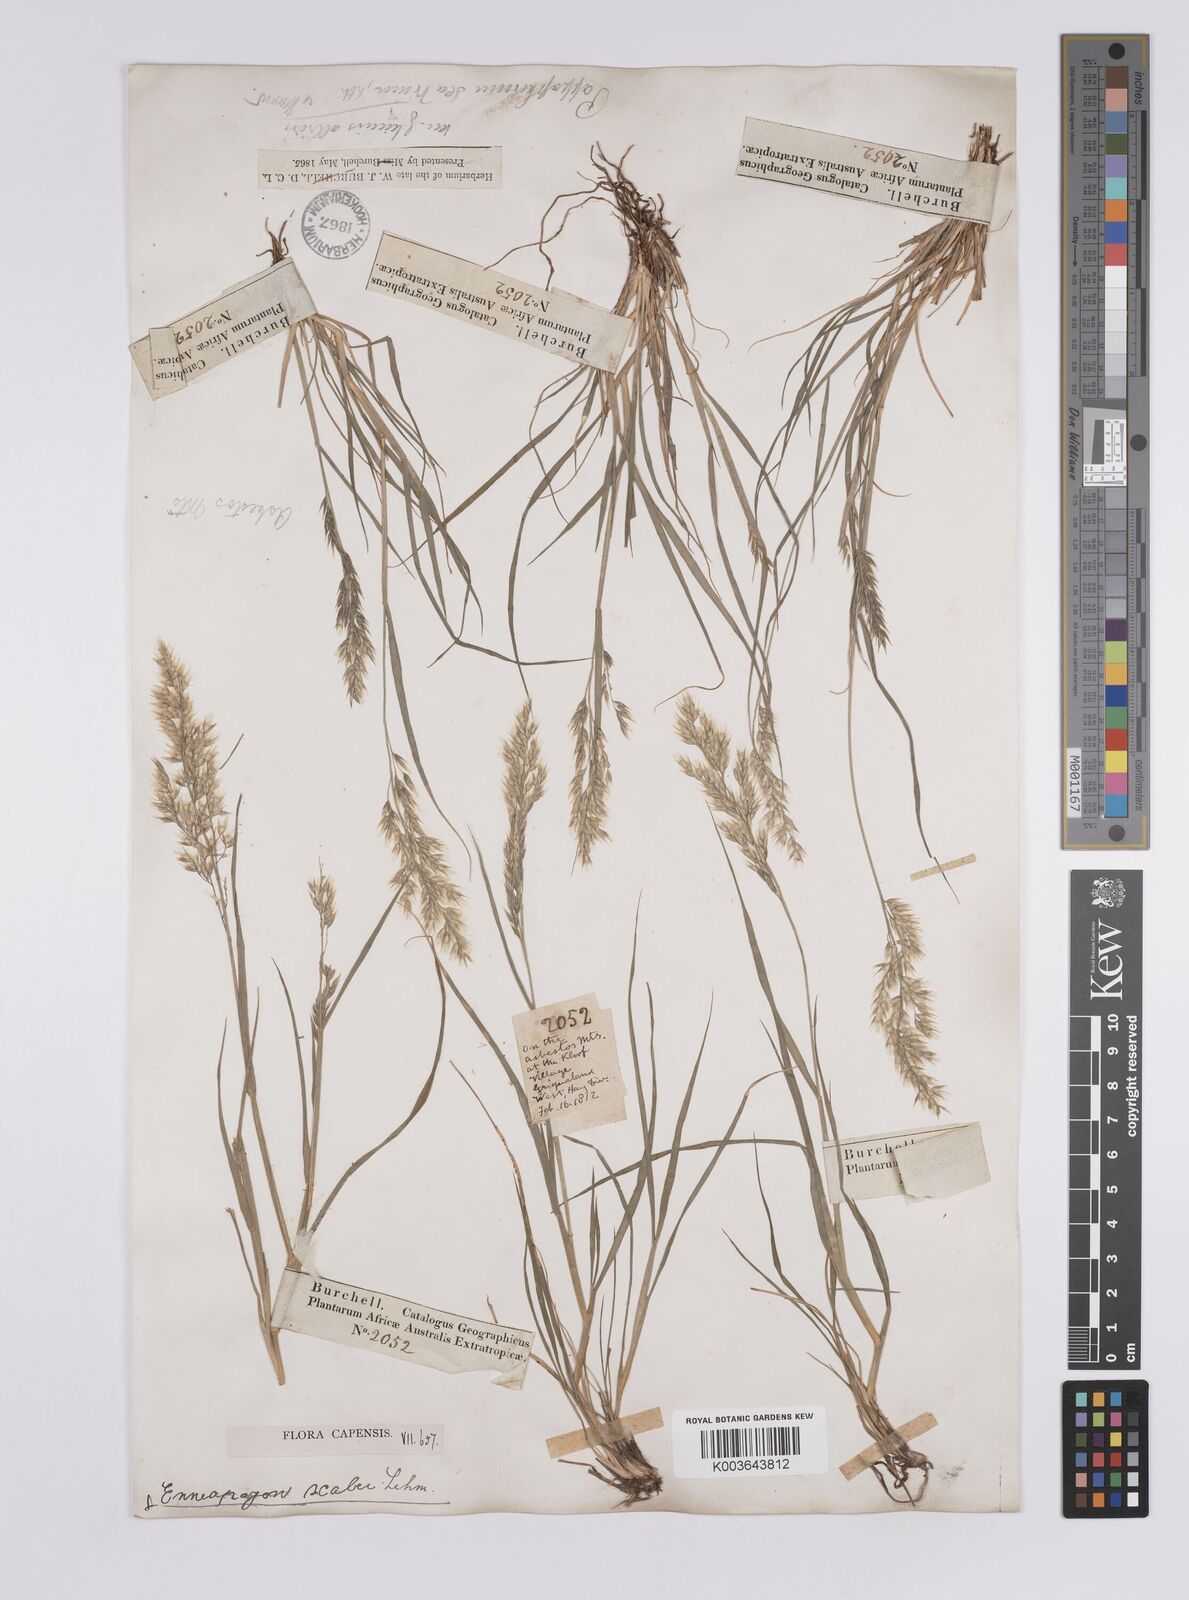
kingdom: Plantae
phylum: Tracheophyta
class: Liliopsida
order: Poales
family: Poaceae
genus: Enneapogon
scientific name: Enneapogon scaber
